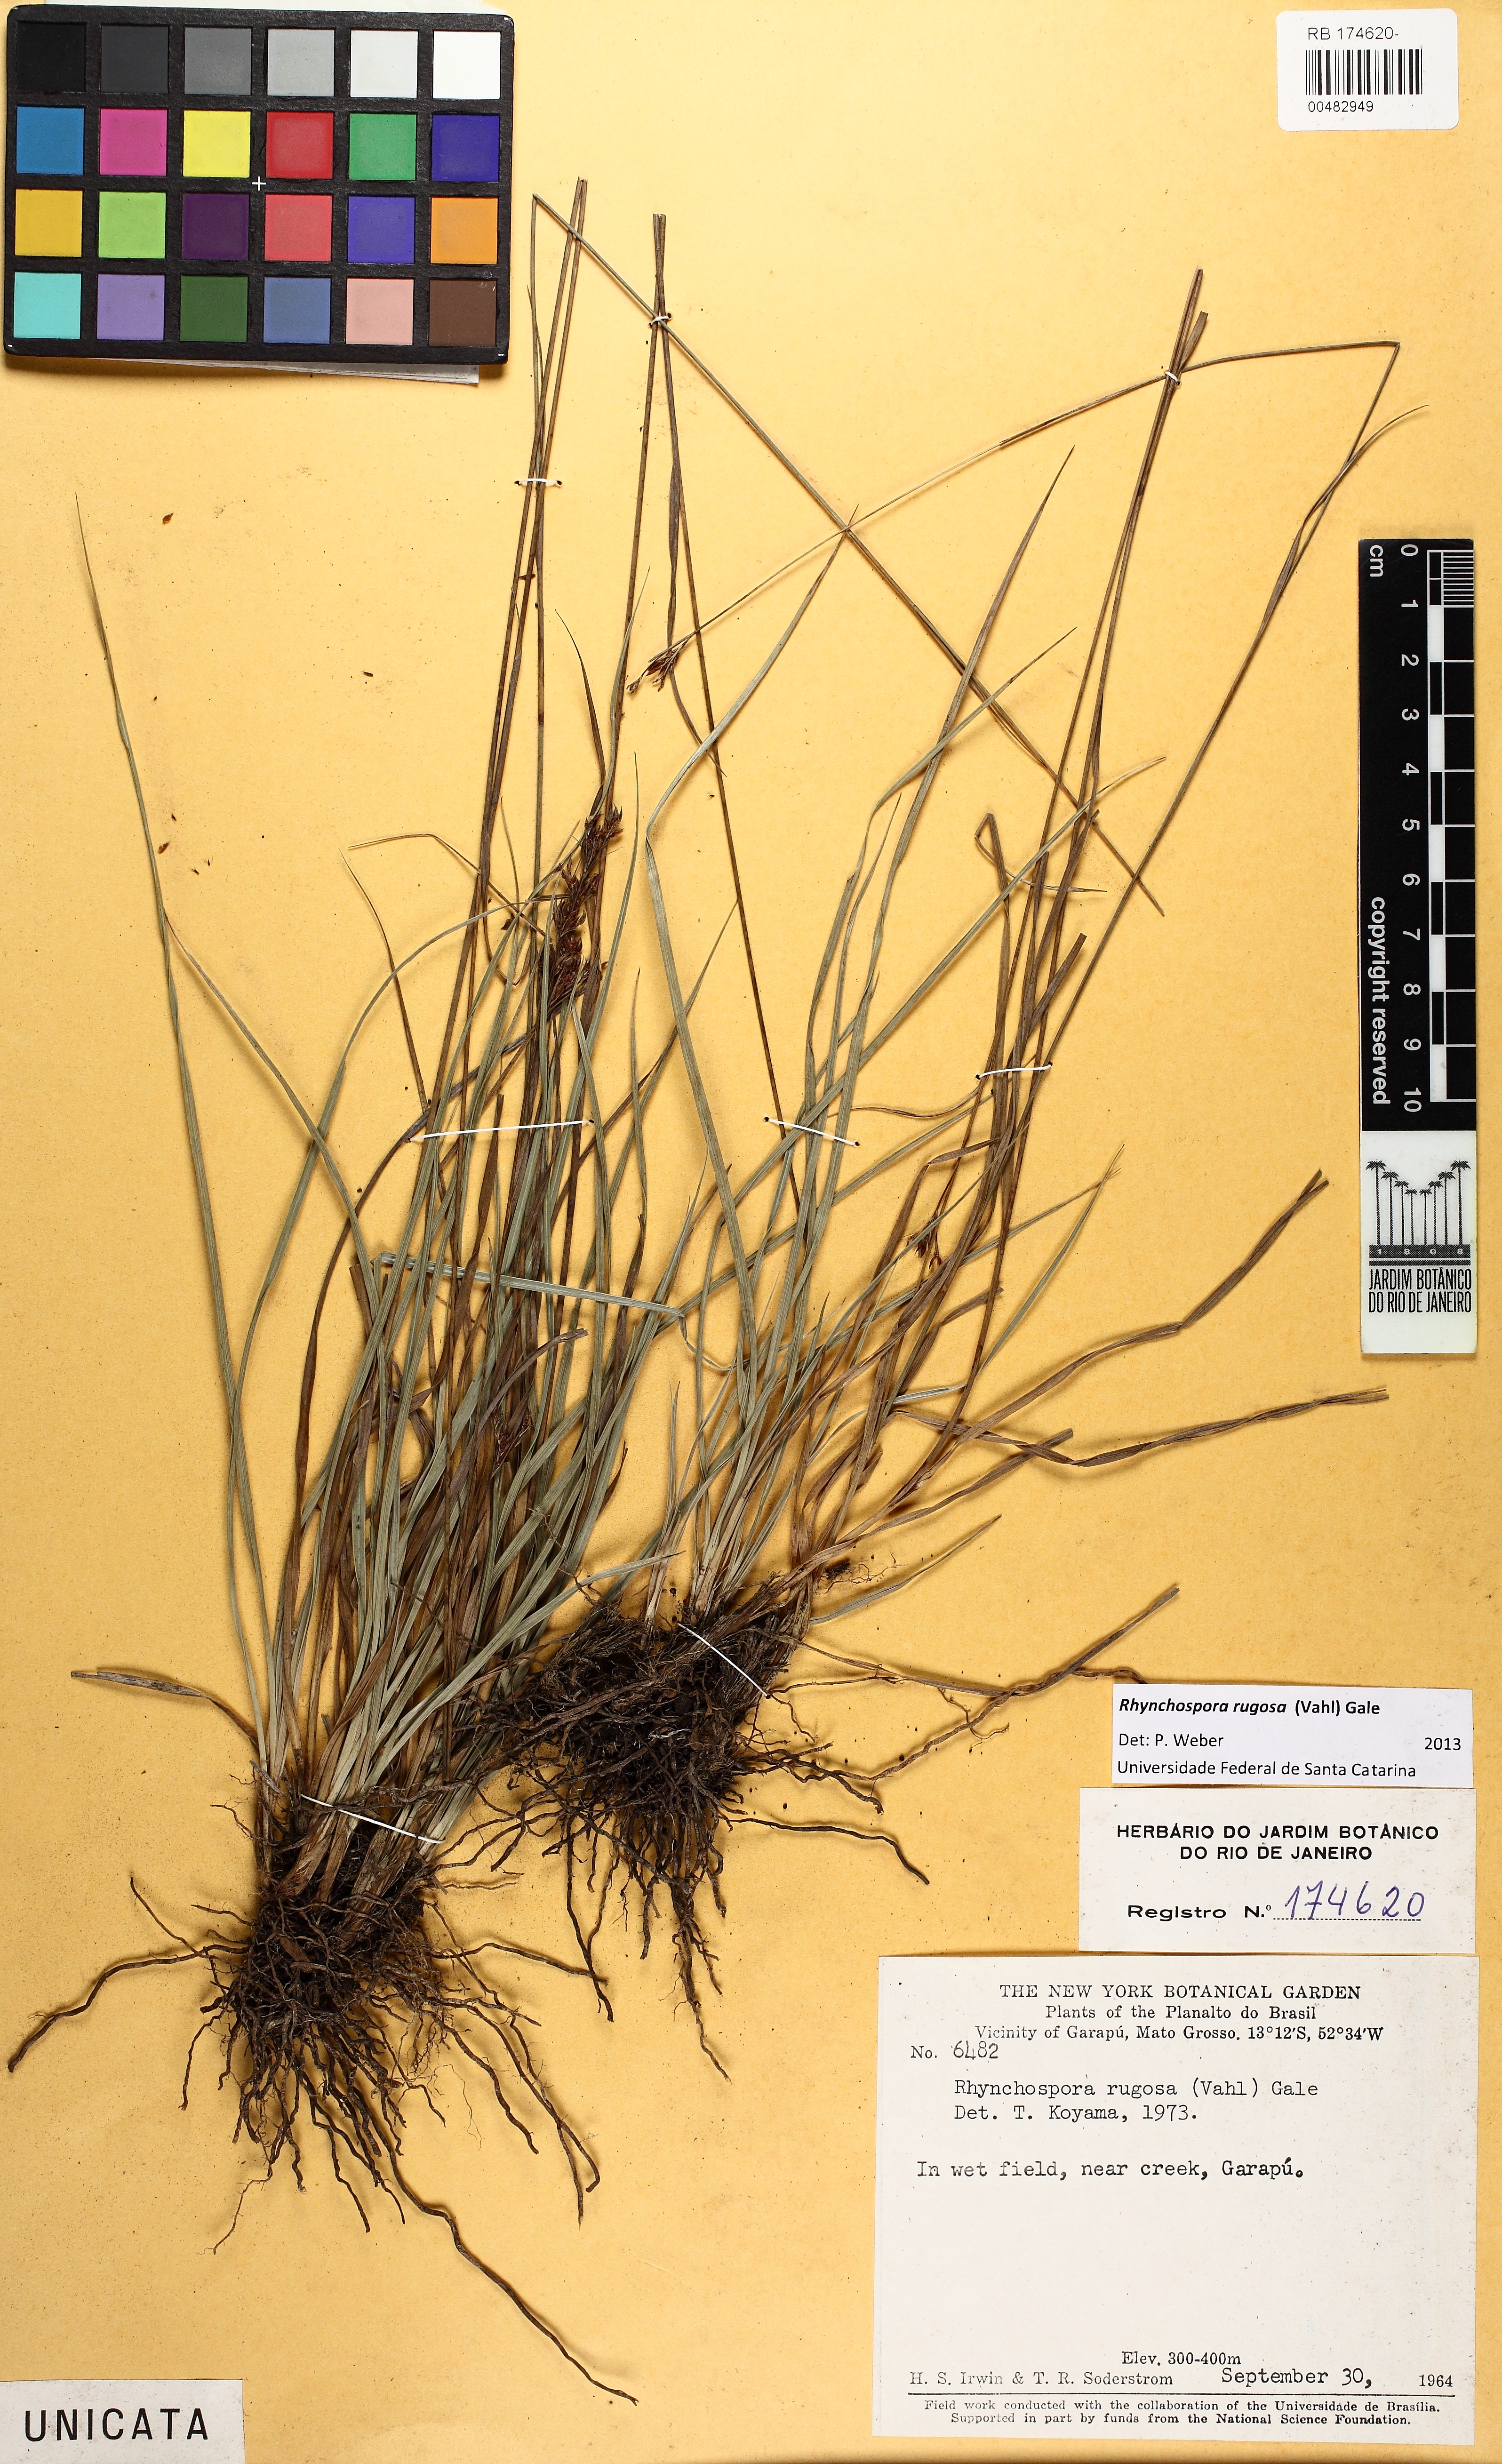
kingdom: Plantae
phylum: Tracheophyta
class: Liliopsida
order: Poales
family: Cyperaceae
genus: Rhynchospora
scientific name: Rhynchospora rugosa
